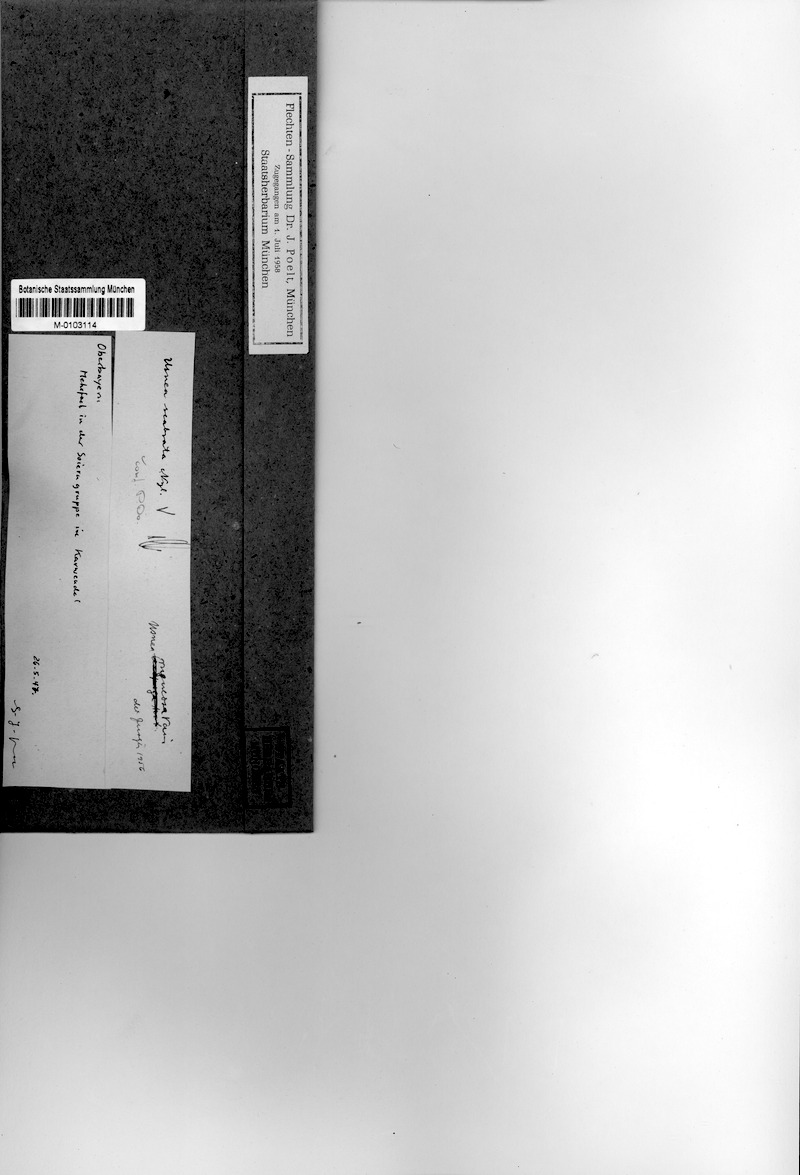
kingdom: Fungi
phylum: Ascomycota
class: Lecanoromycetes
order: Lecanorales
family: Parmeliaceae
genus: Usnea
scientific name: Usnea scabrata
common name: Straw beard lichen
